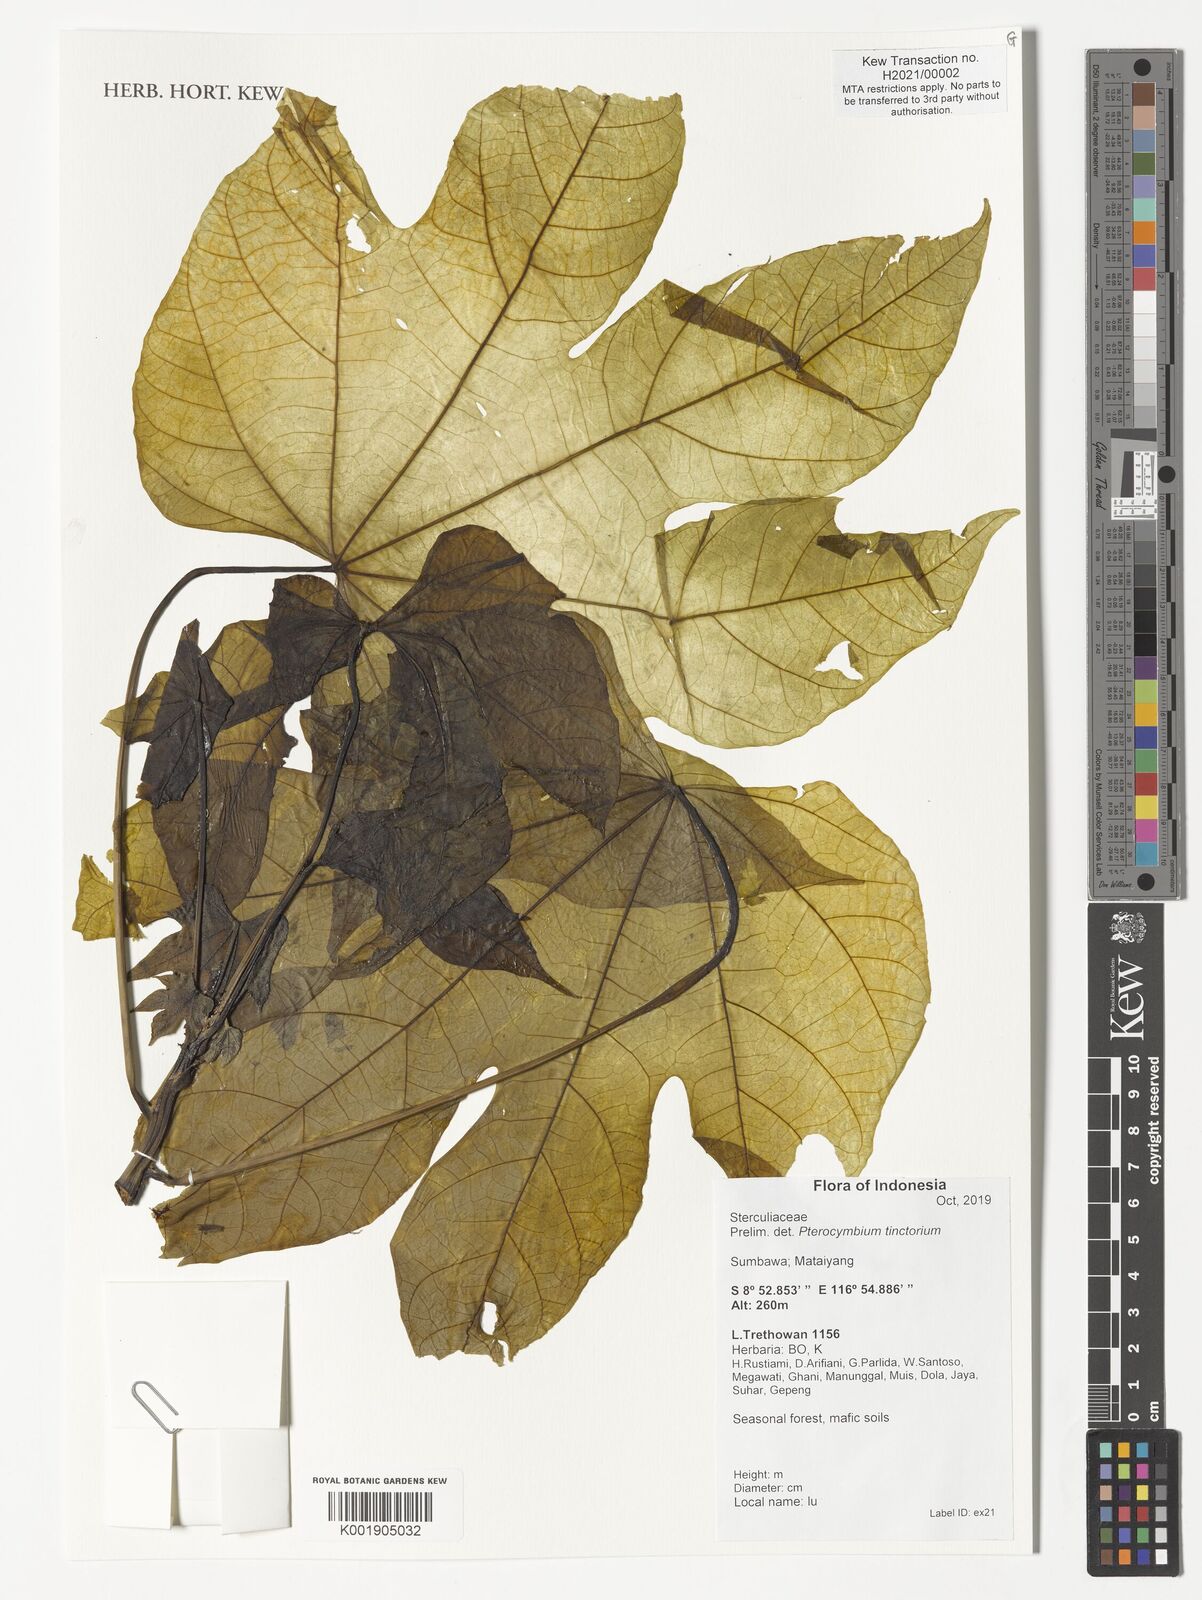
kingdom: Plantae
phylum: Tracheophyta
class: Magnoliopsida
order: Malvales
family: Malvaceae
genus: Pterocymbium
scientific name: Pterocymbium tinctorium
